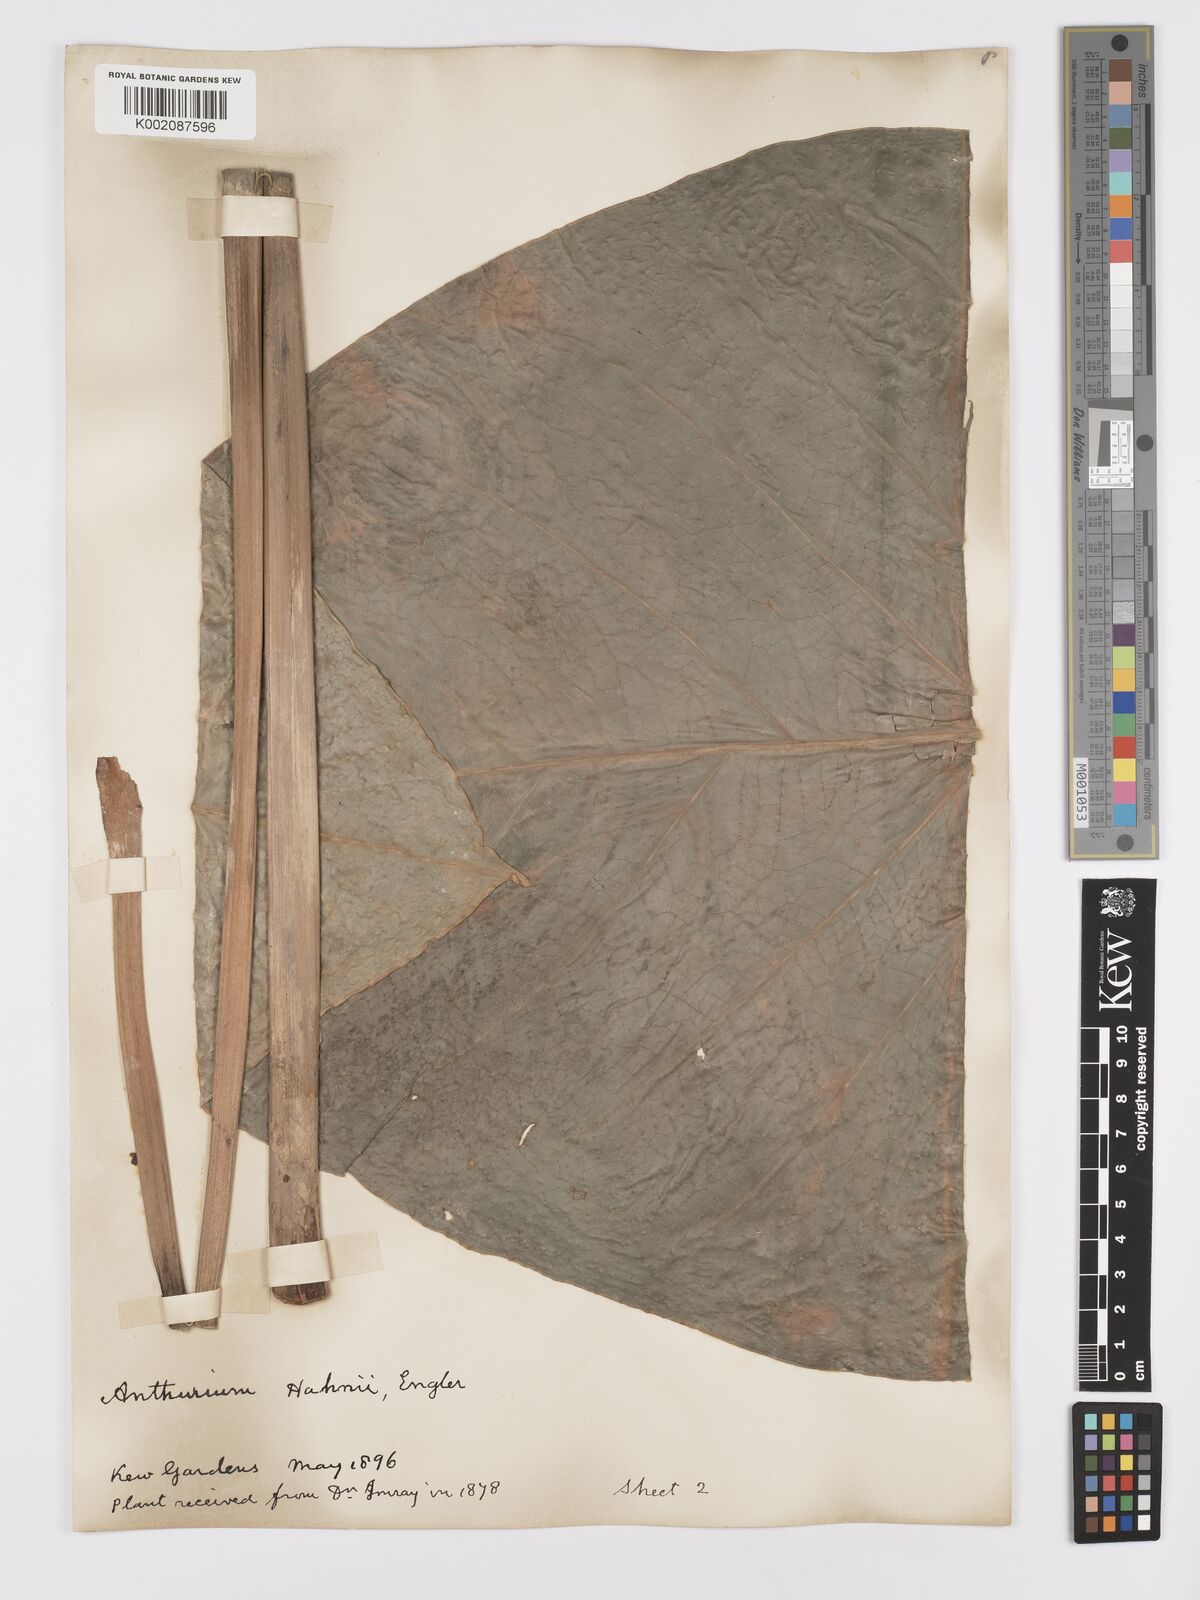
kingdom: Plantae
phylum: Tracheophyta
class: Liliopsida
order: Alismatales
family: Araceae
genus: Anthurium
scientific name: Anthurium grandifolium
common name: Monkey tail
